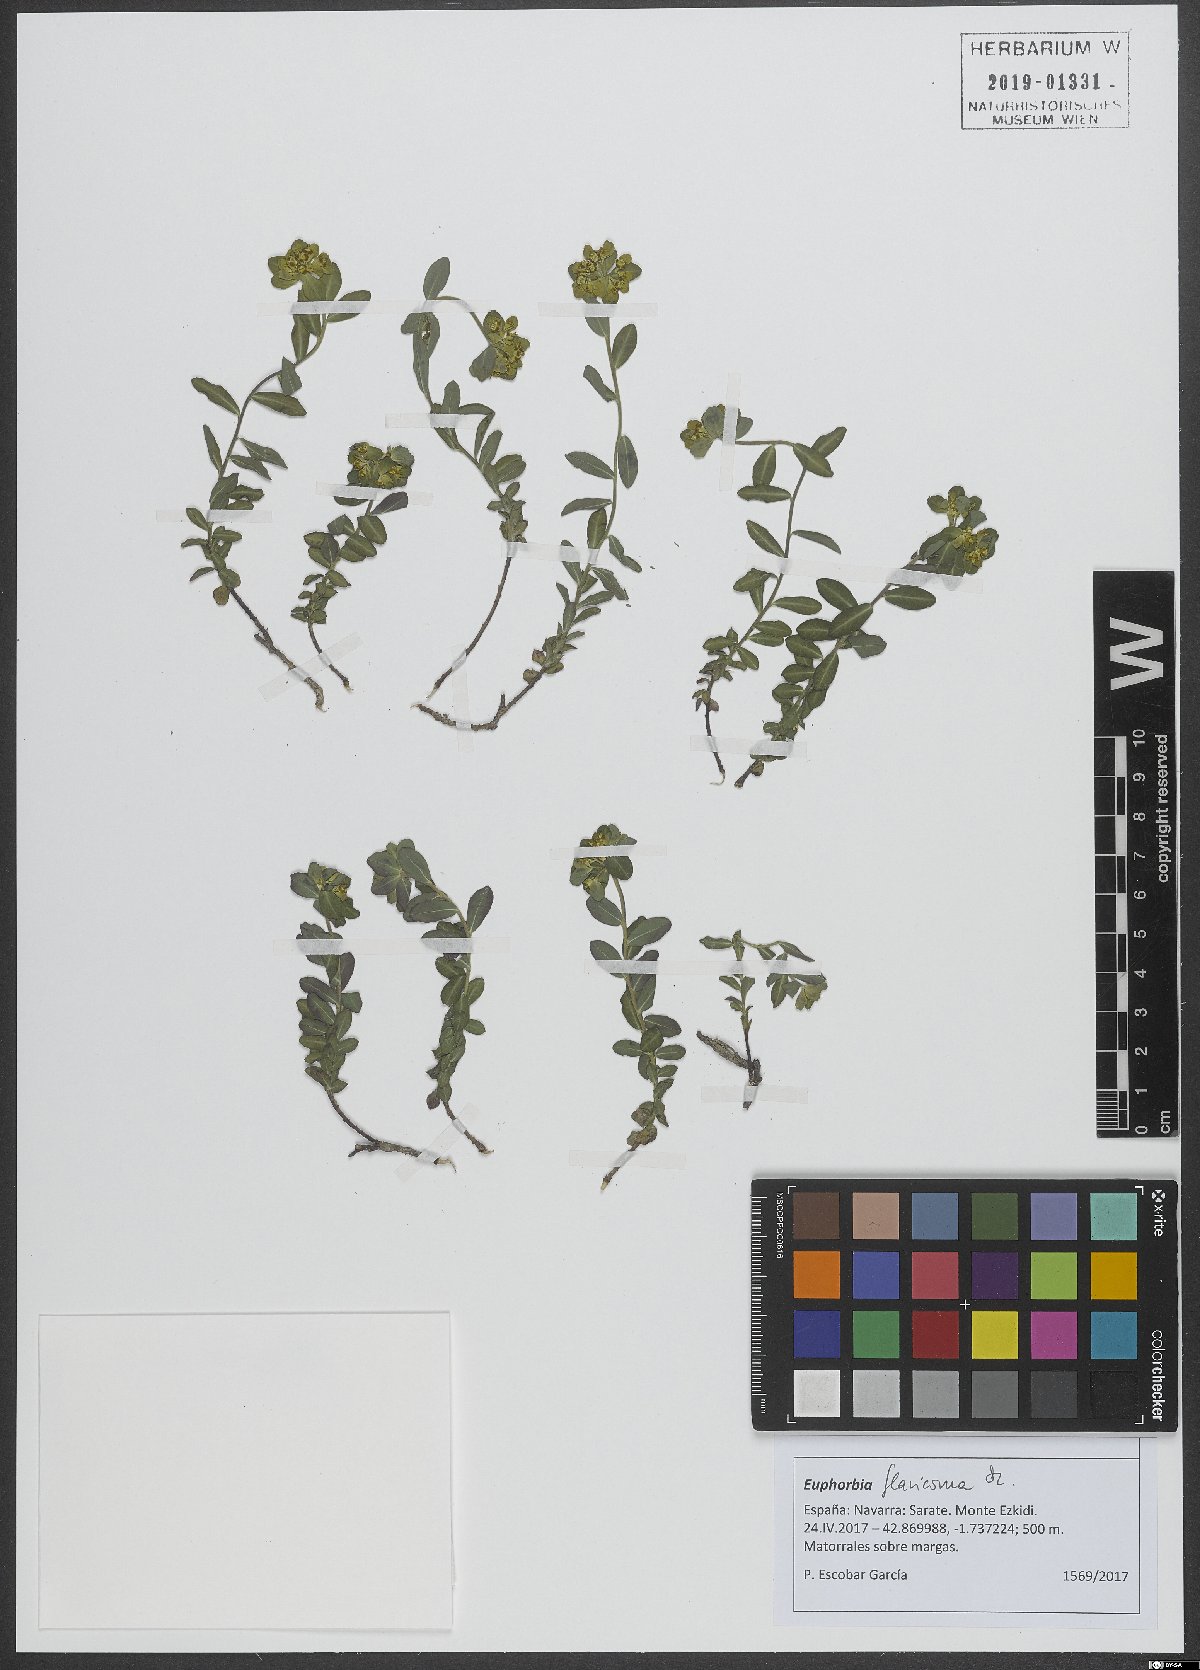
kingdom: Plantae
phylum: Tracheophyta
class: Magnoliopsida
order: Malpighiales
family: Euphorbiaceae
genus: Euphorbia
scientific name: Euphorbia flavicoma
